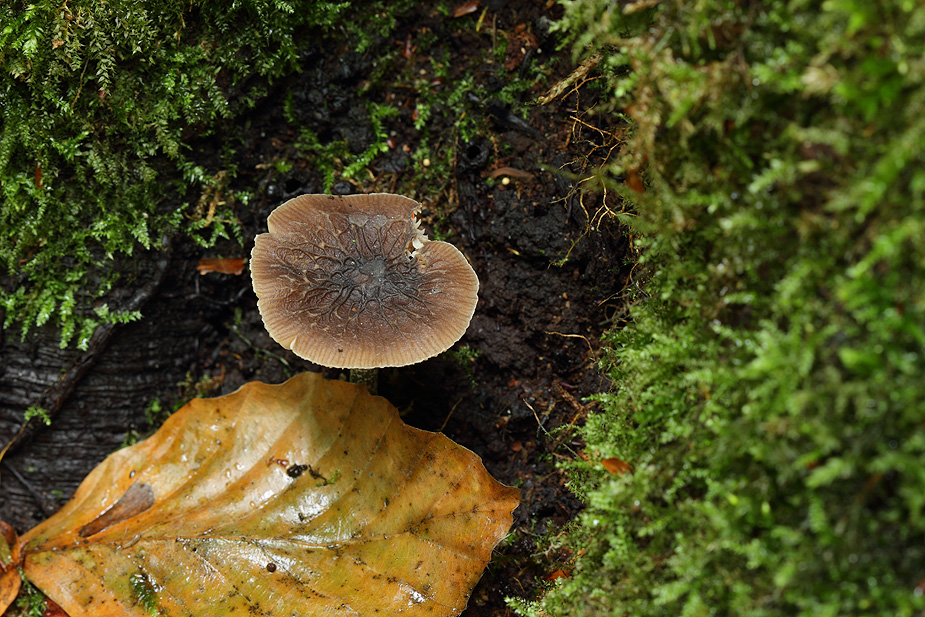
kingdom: Fungi
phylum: Basidiomycota
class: Agaricomycetes
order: Agaricales
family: Pluteaceae
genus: Pluteus
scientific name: Pluteus
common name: gråstokket skærmhat
